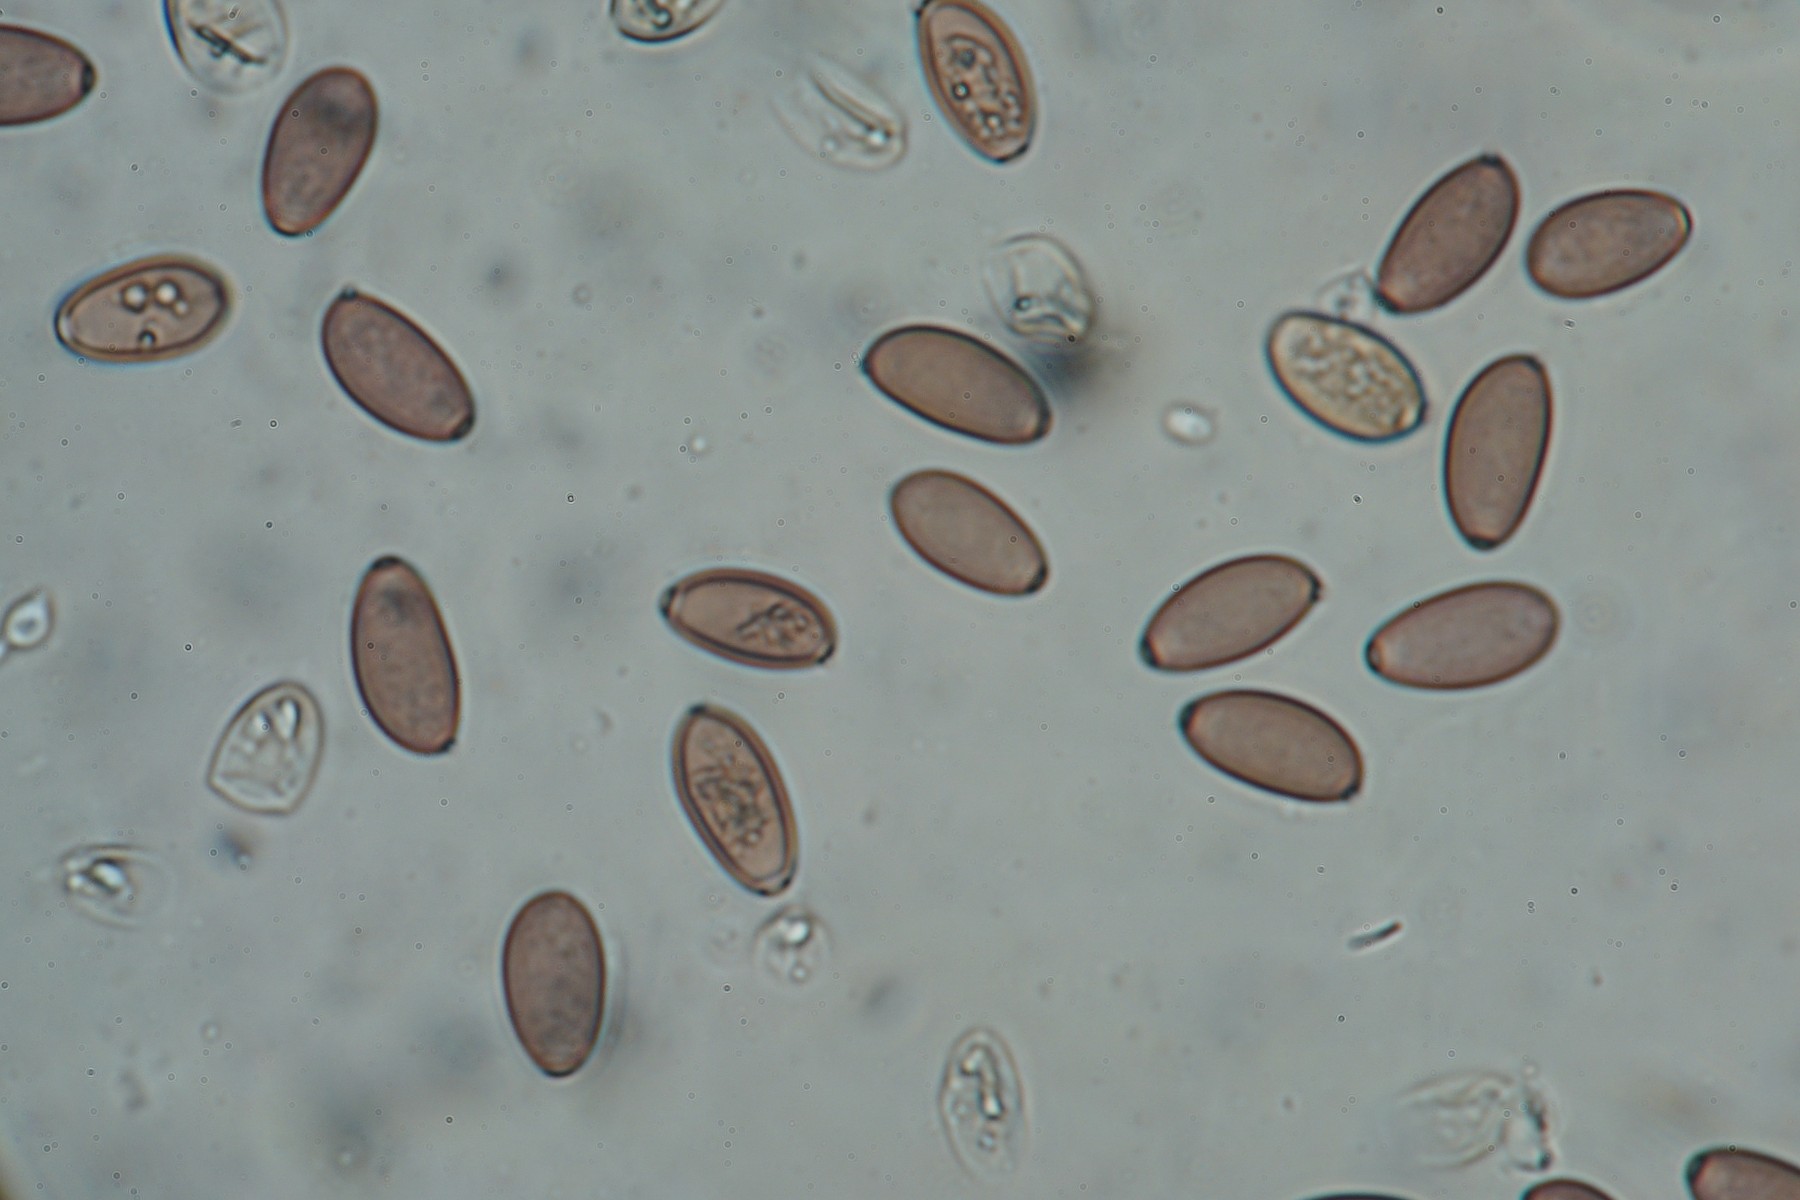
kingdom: Fungi
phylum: Basidiomycota
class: Agaricomycetes
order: Agaricales
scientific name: Agaricales
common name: champignonordenen
